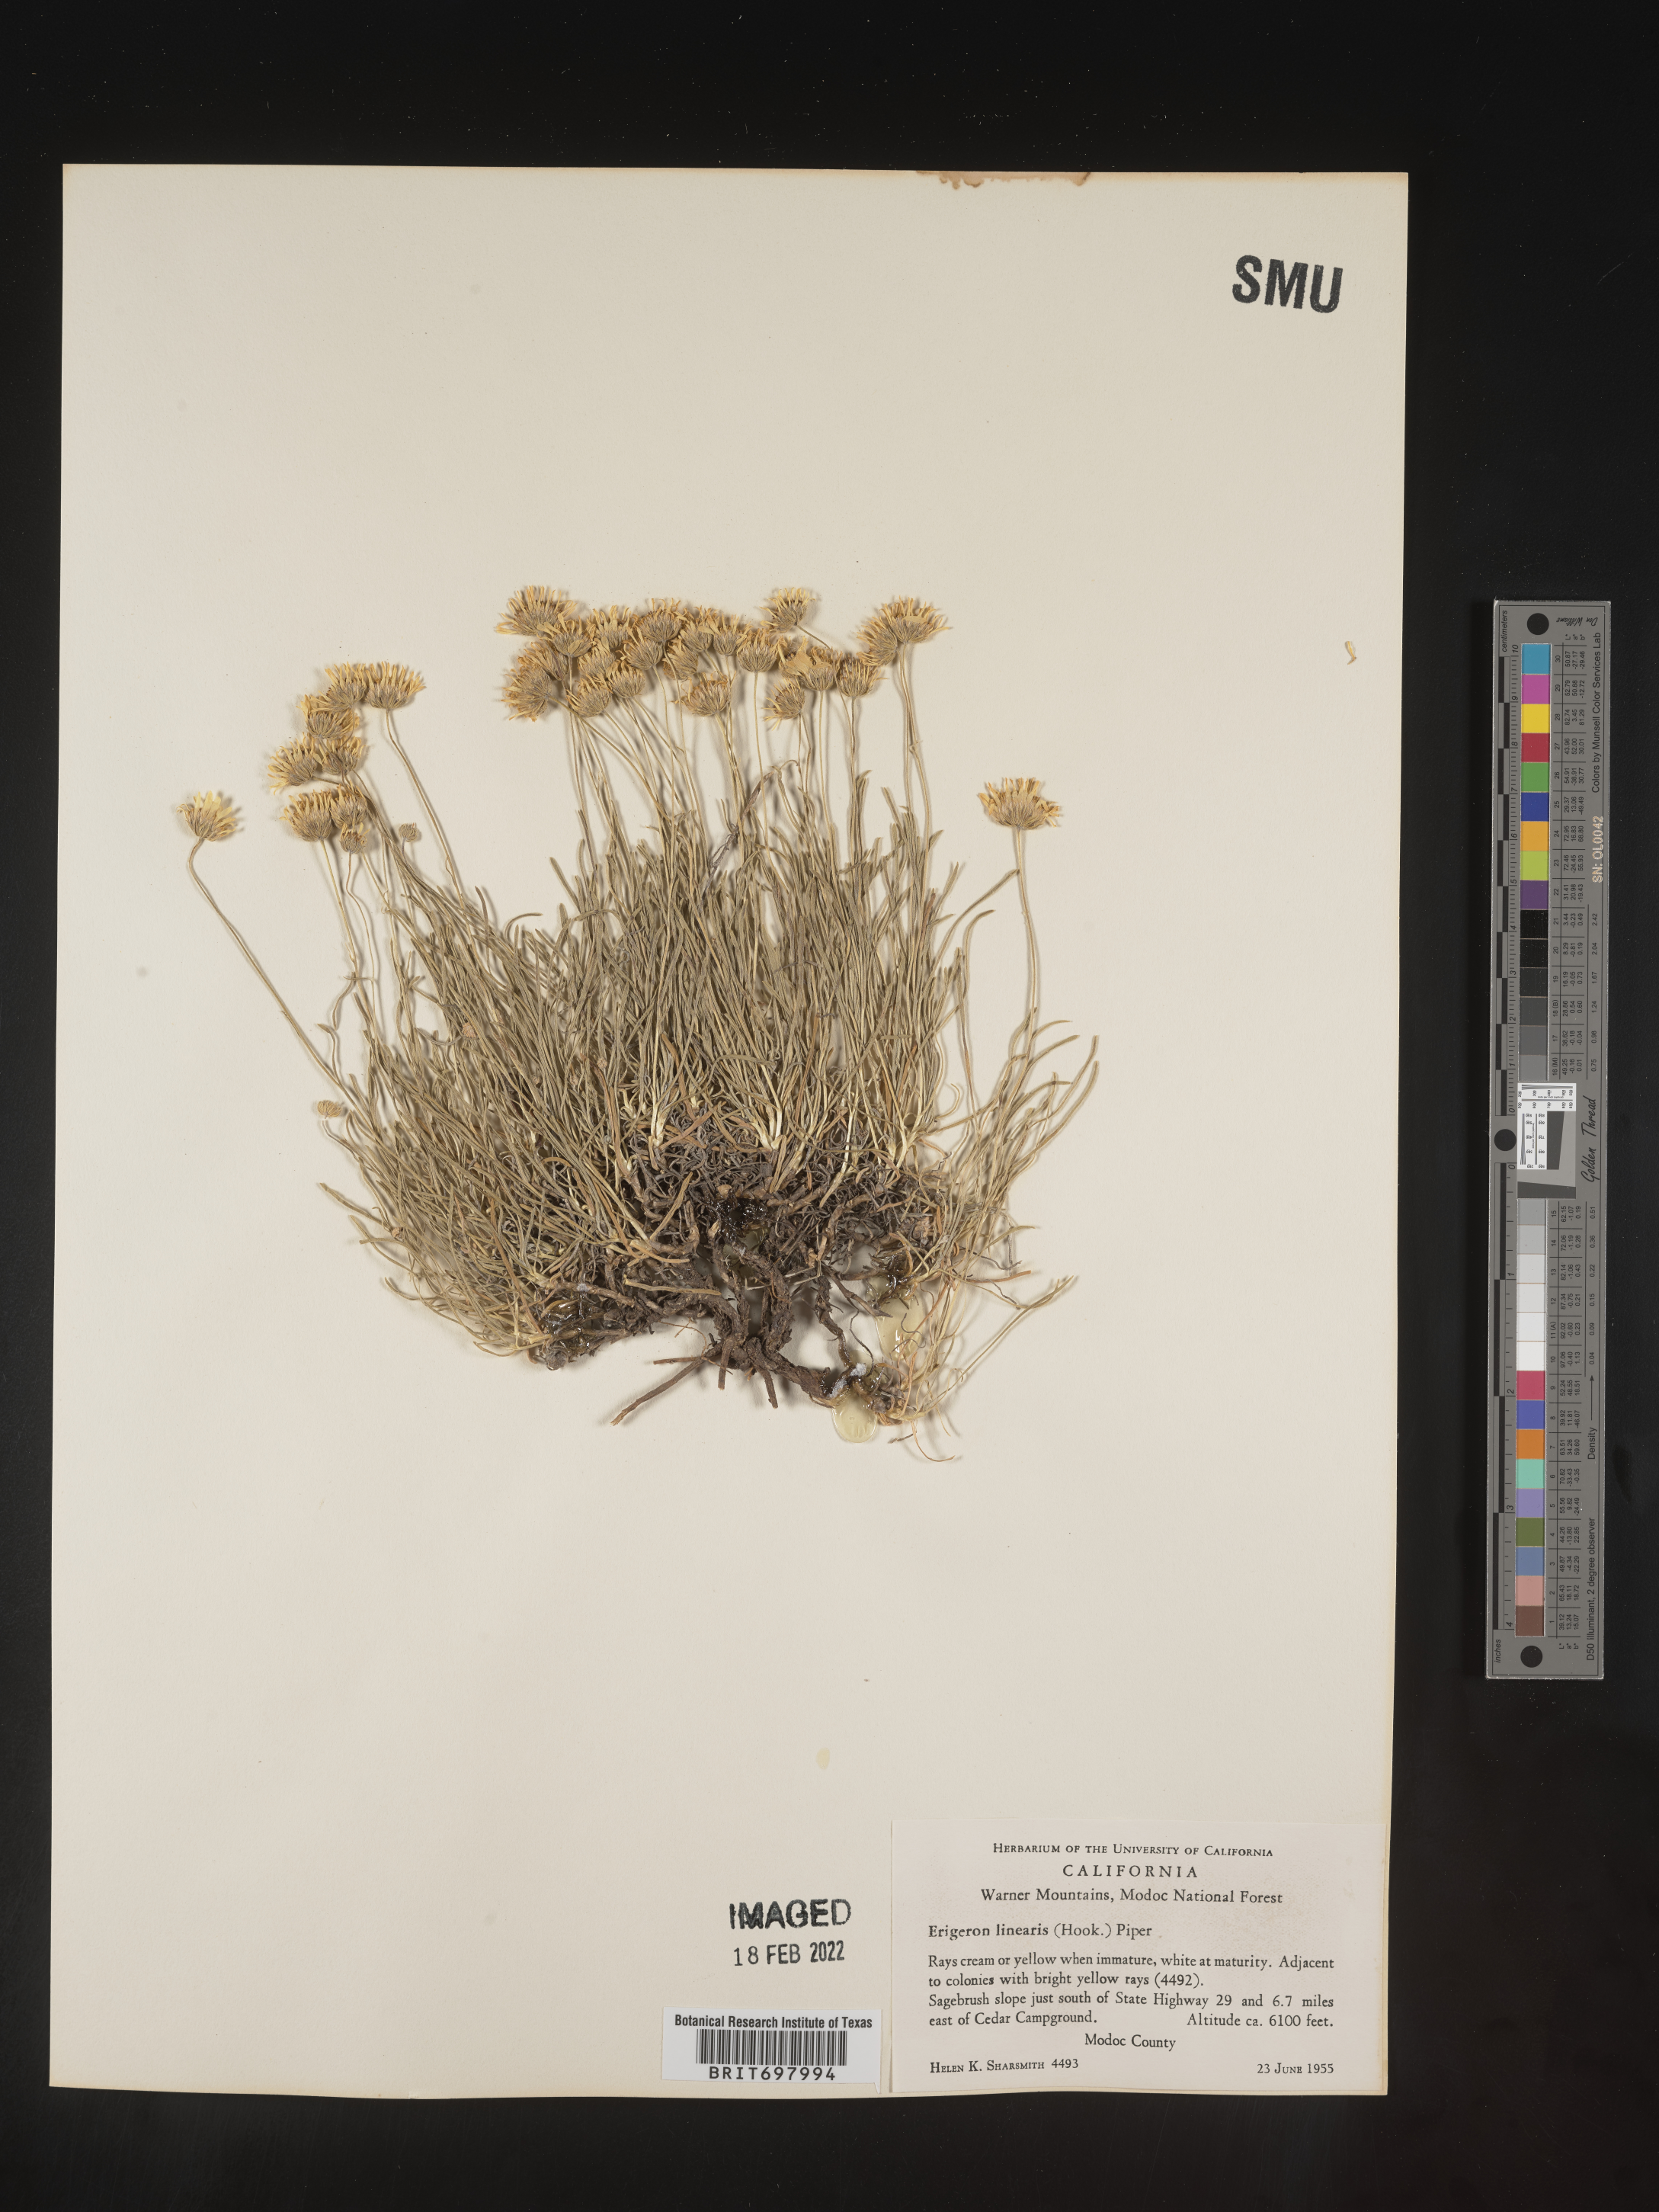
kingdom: Plantae
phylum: Tracheophyta
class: Magnoliopsida
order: Asterales
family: Asteraceae
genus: Erigeron
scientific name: Erigeron linearis
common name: Desert yellow fleabane
